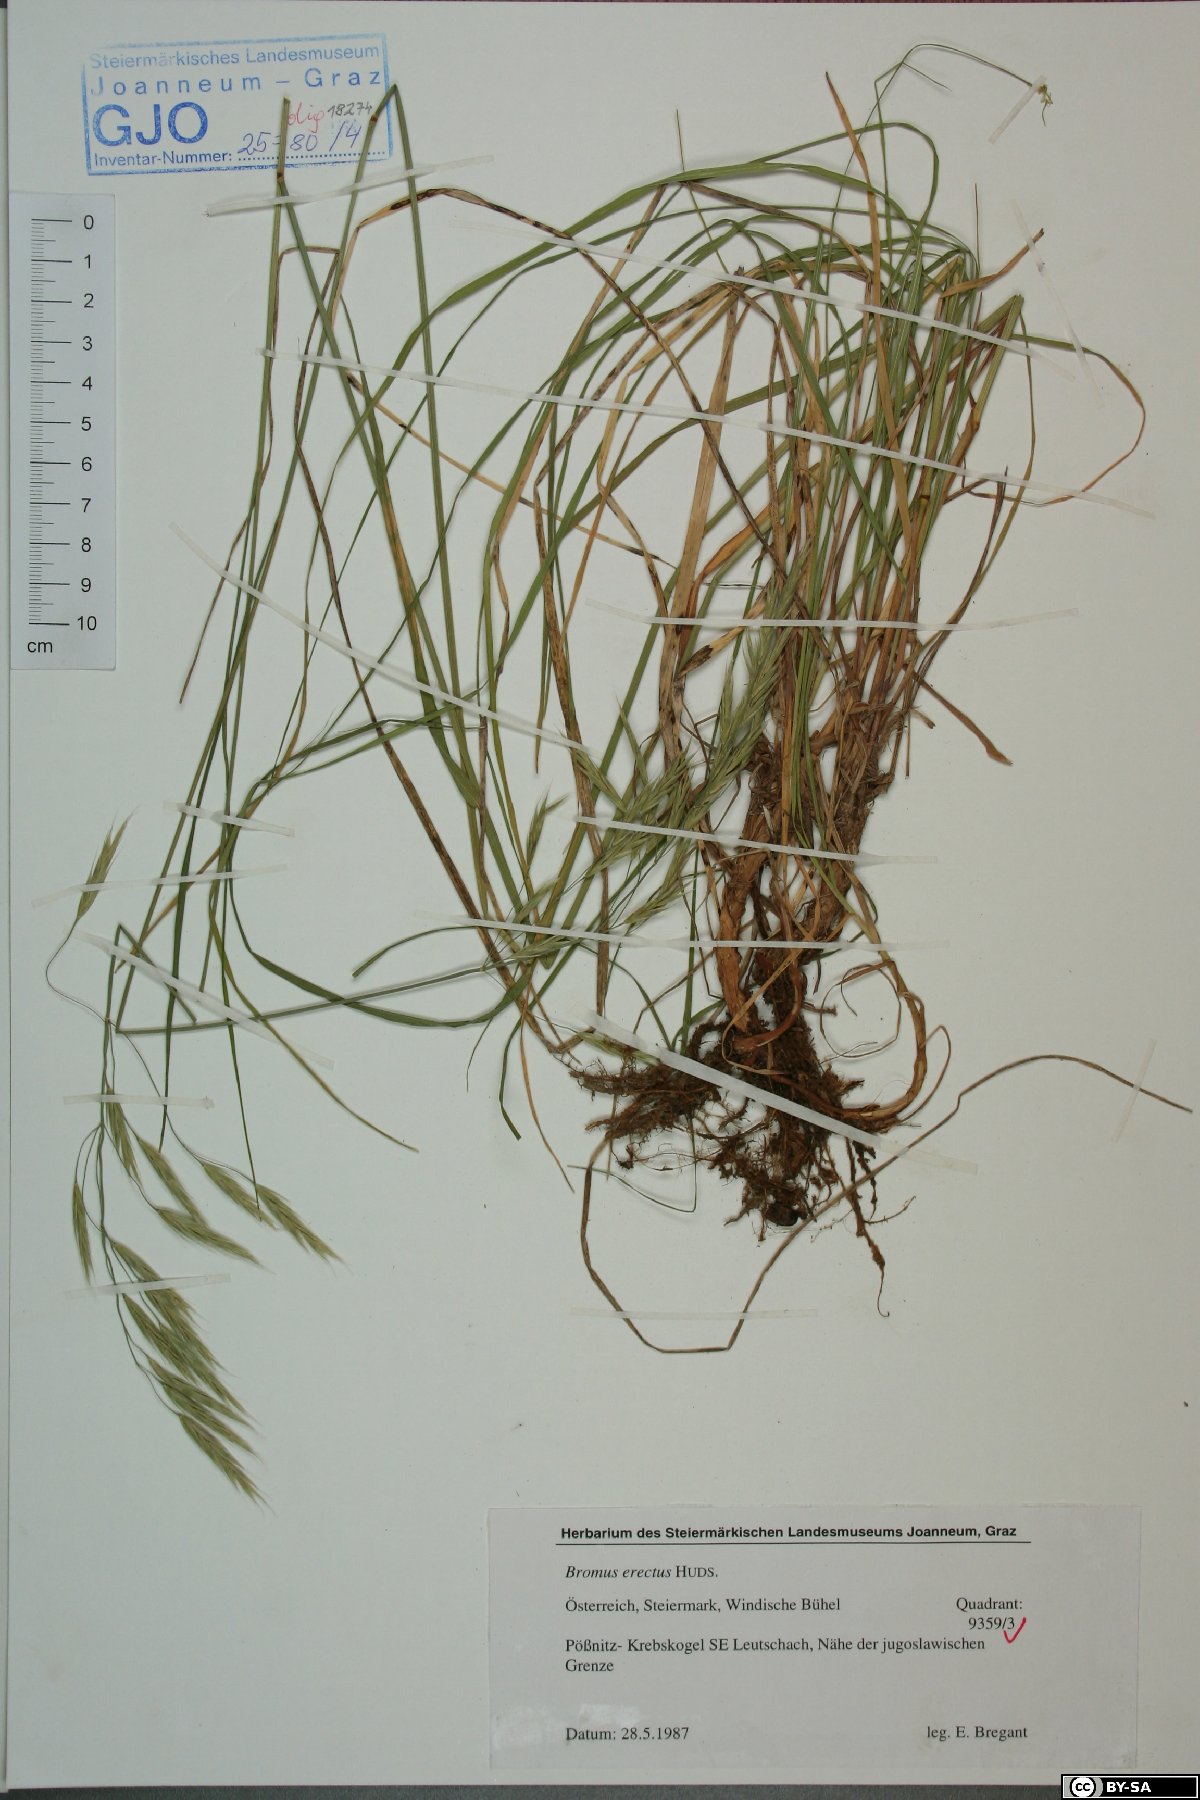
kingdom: Plantae
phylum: Tracheophyta
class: Liliopsida
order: Poales
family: Poaceae
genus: Bromus
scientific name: Bromus erectus
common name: Erect brome
